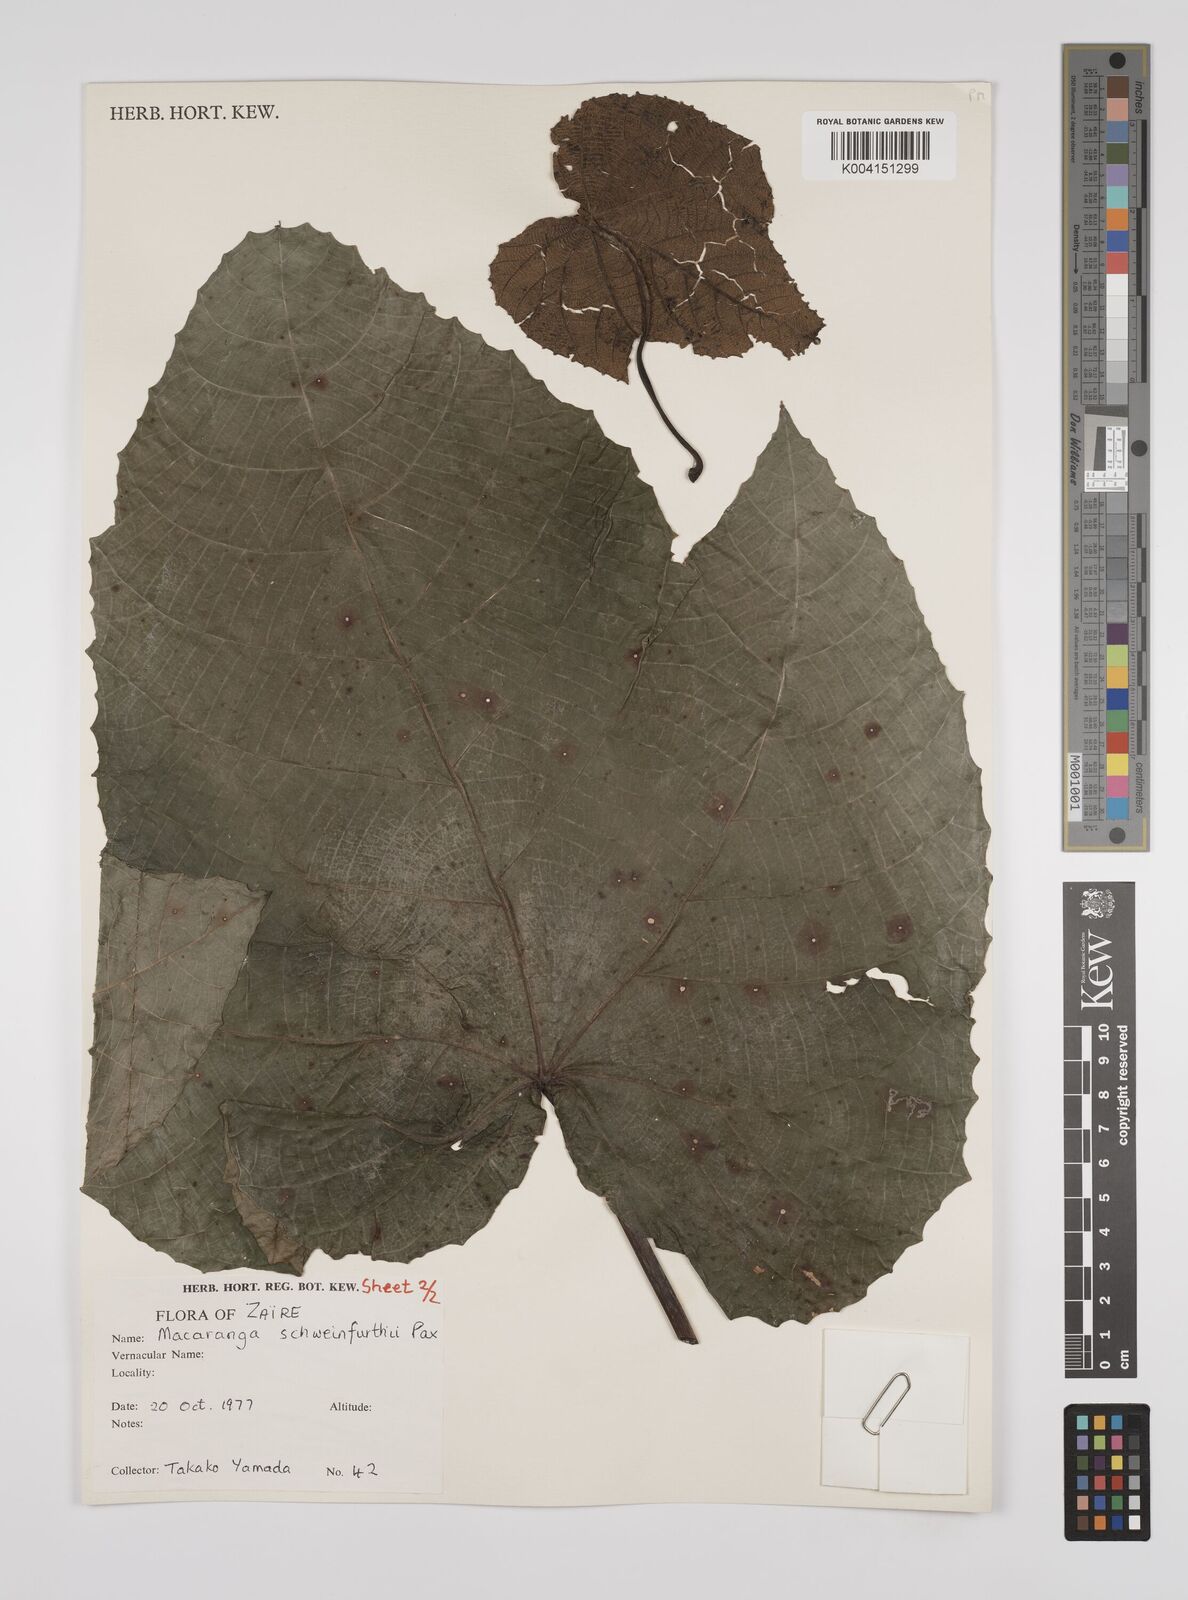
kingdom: Plantae
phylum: Tracheophyta
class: Magnoliopsida
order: Malpighiales
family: Euphorbiaceae
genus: Macaranga
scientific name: Macaranga schweinfurthii
